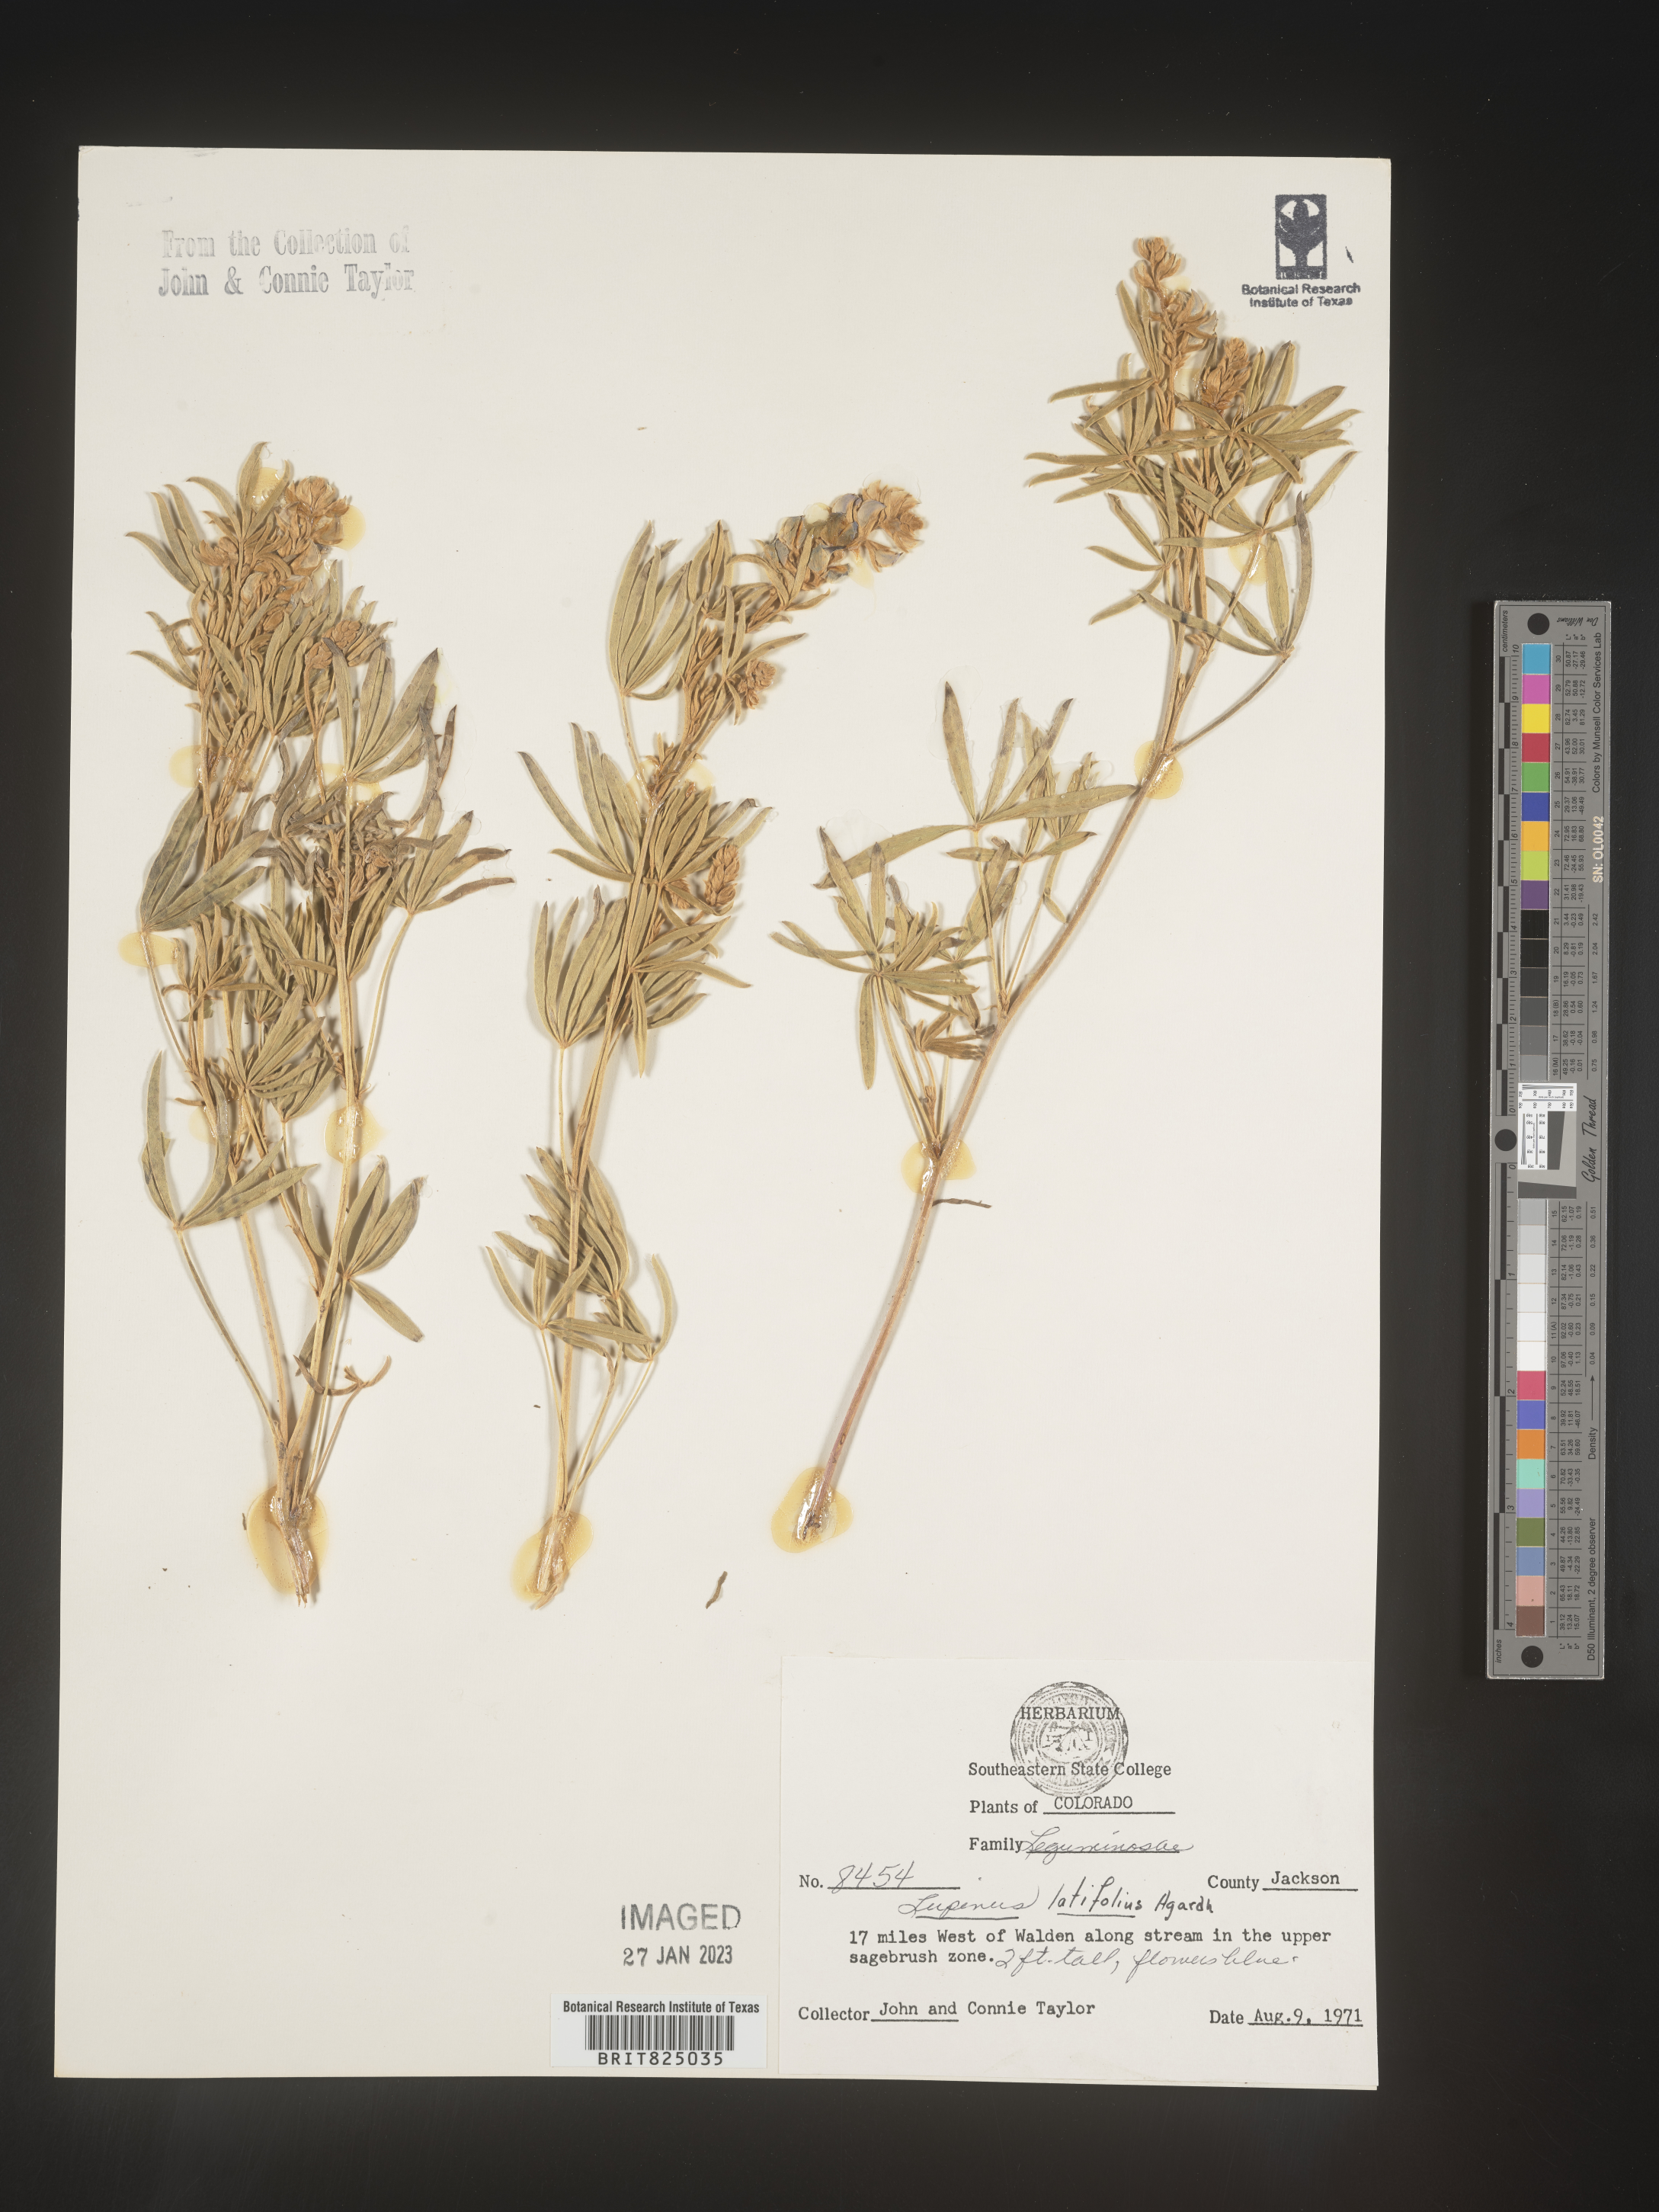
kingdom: Plantae
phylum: Tracheophyta
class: Magnoliopsida
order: Fabales
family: Fabaceae
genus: Lupinus
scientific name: Lupinus
